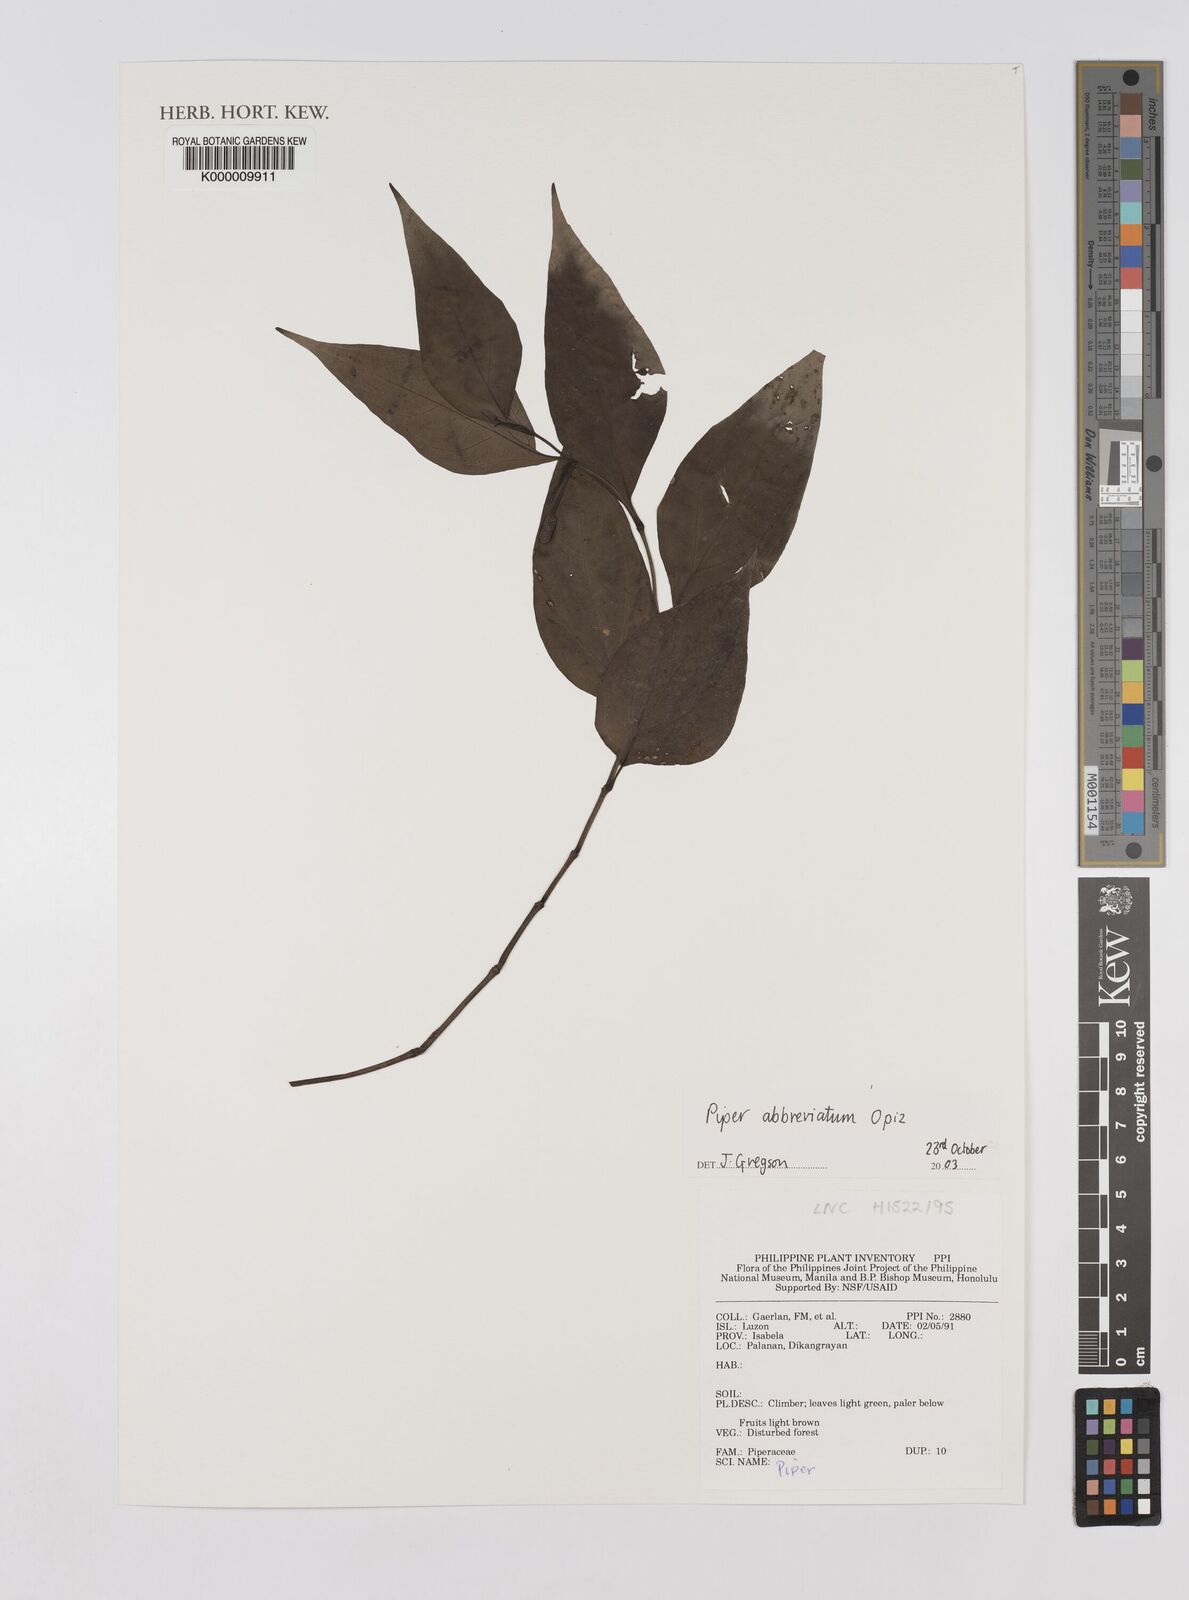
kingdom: Plantae
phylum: Tracheophyta
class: Magnoliopsida
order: Piperales
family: Piperaceae
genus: Piper
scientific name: Piper abbreviatum
